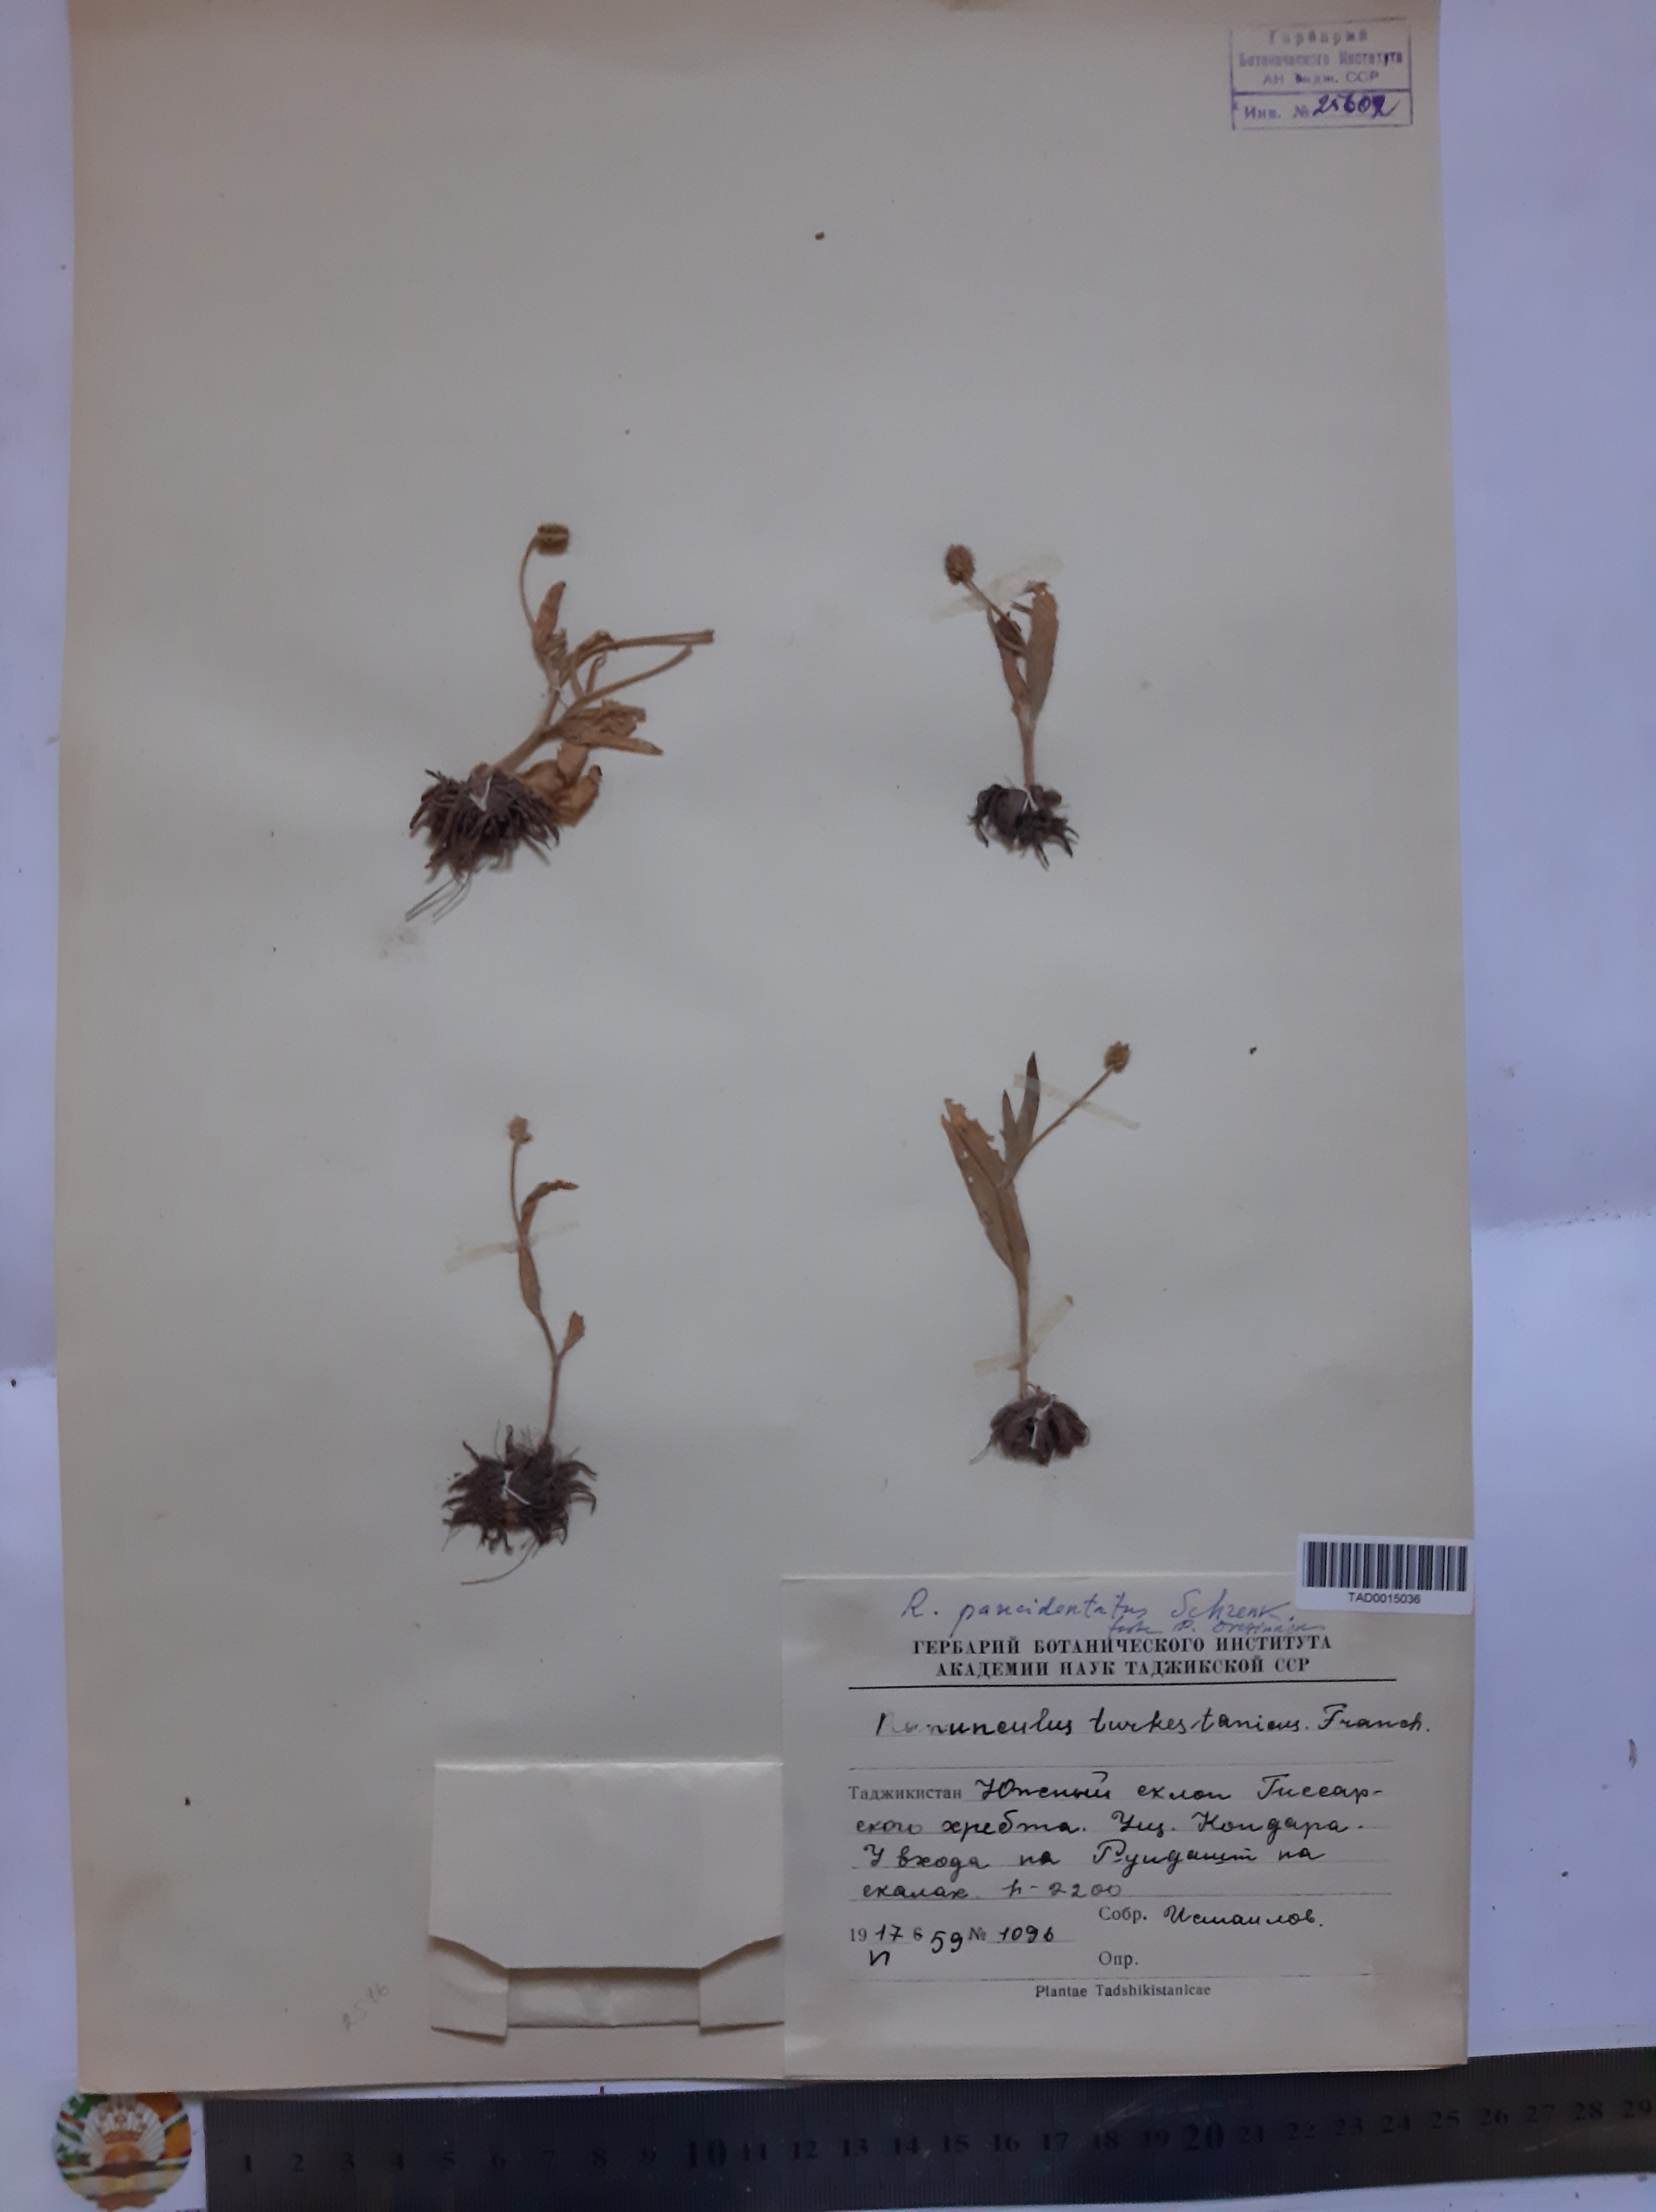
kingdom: Plantae
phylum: Tracheophyta
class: Magnoliopsida
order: Ranunculales
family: Ranunculaceae
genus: Ranunculus
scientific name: Ranunculus paucidentatus
